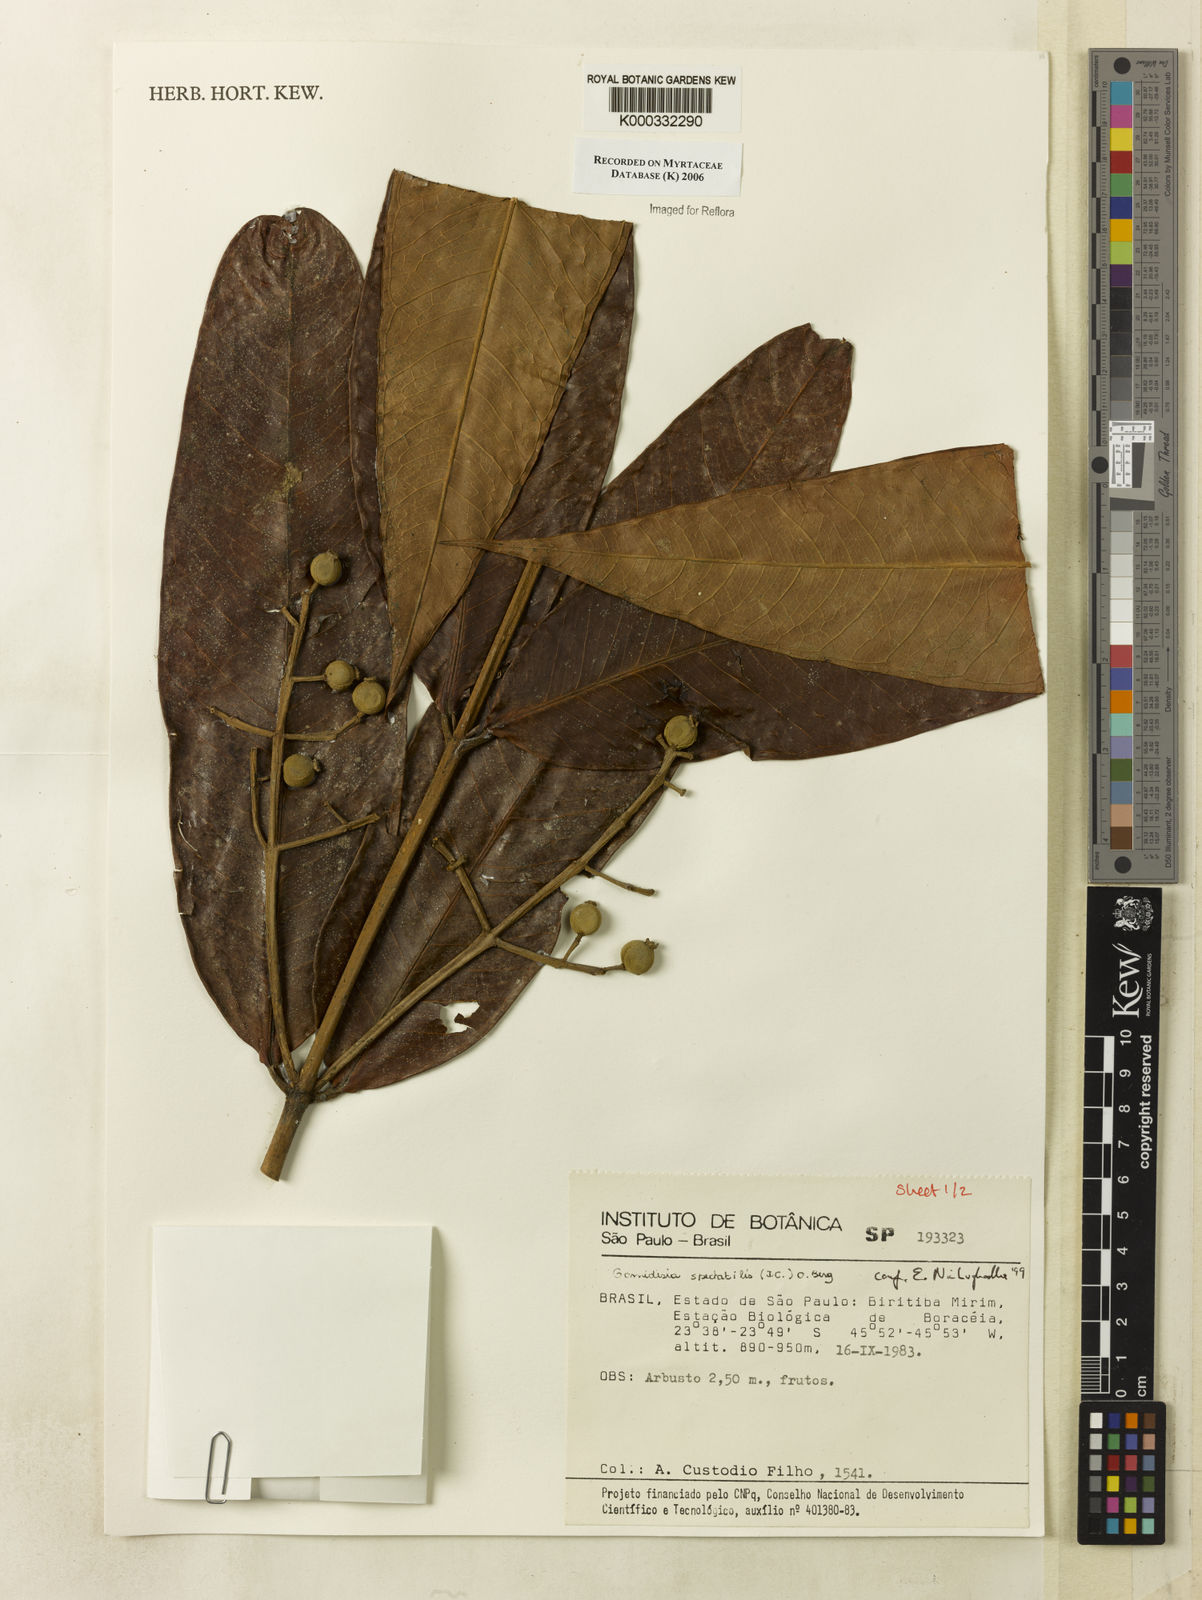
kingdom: Plantae
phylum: Tracheophyta
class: Magnoliopsida
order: Myrtales
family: Myrtaceae
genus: Myrcia
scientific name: Myrcia spectabilis
